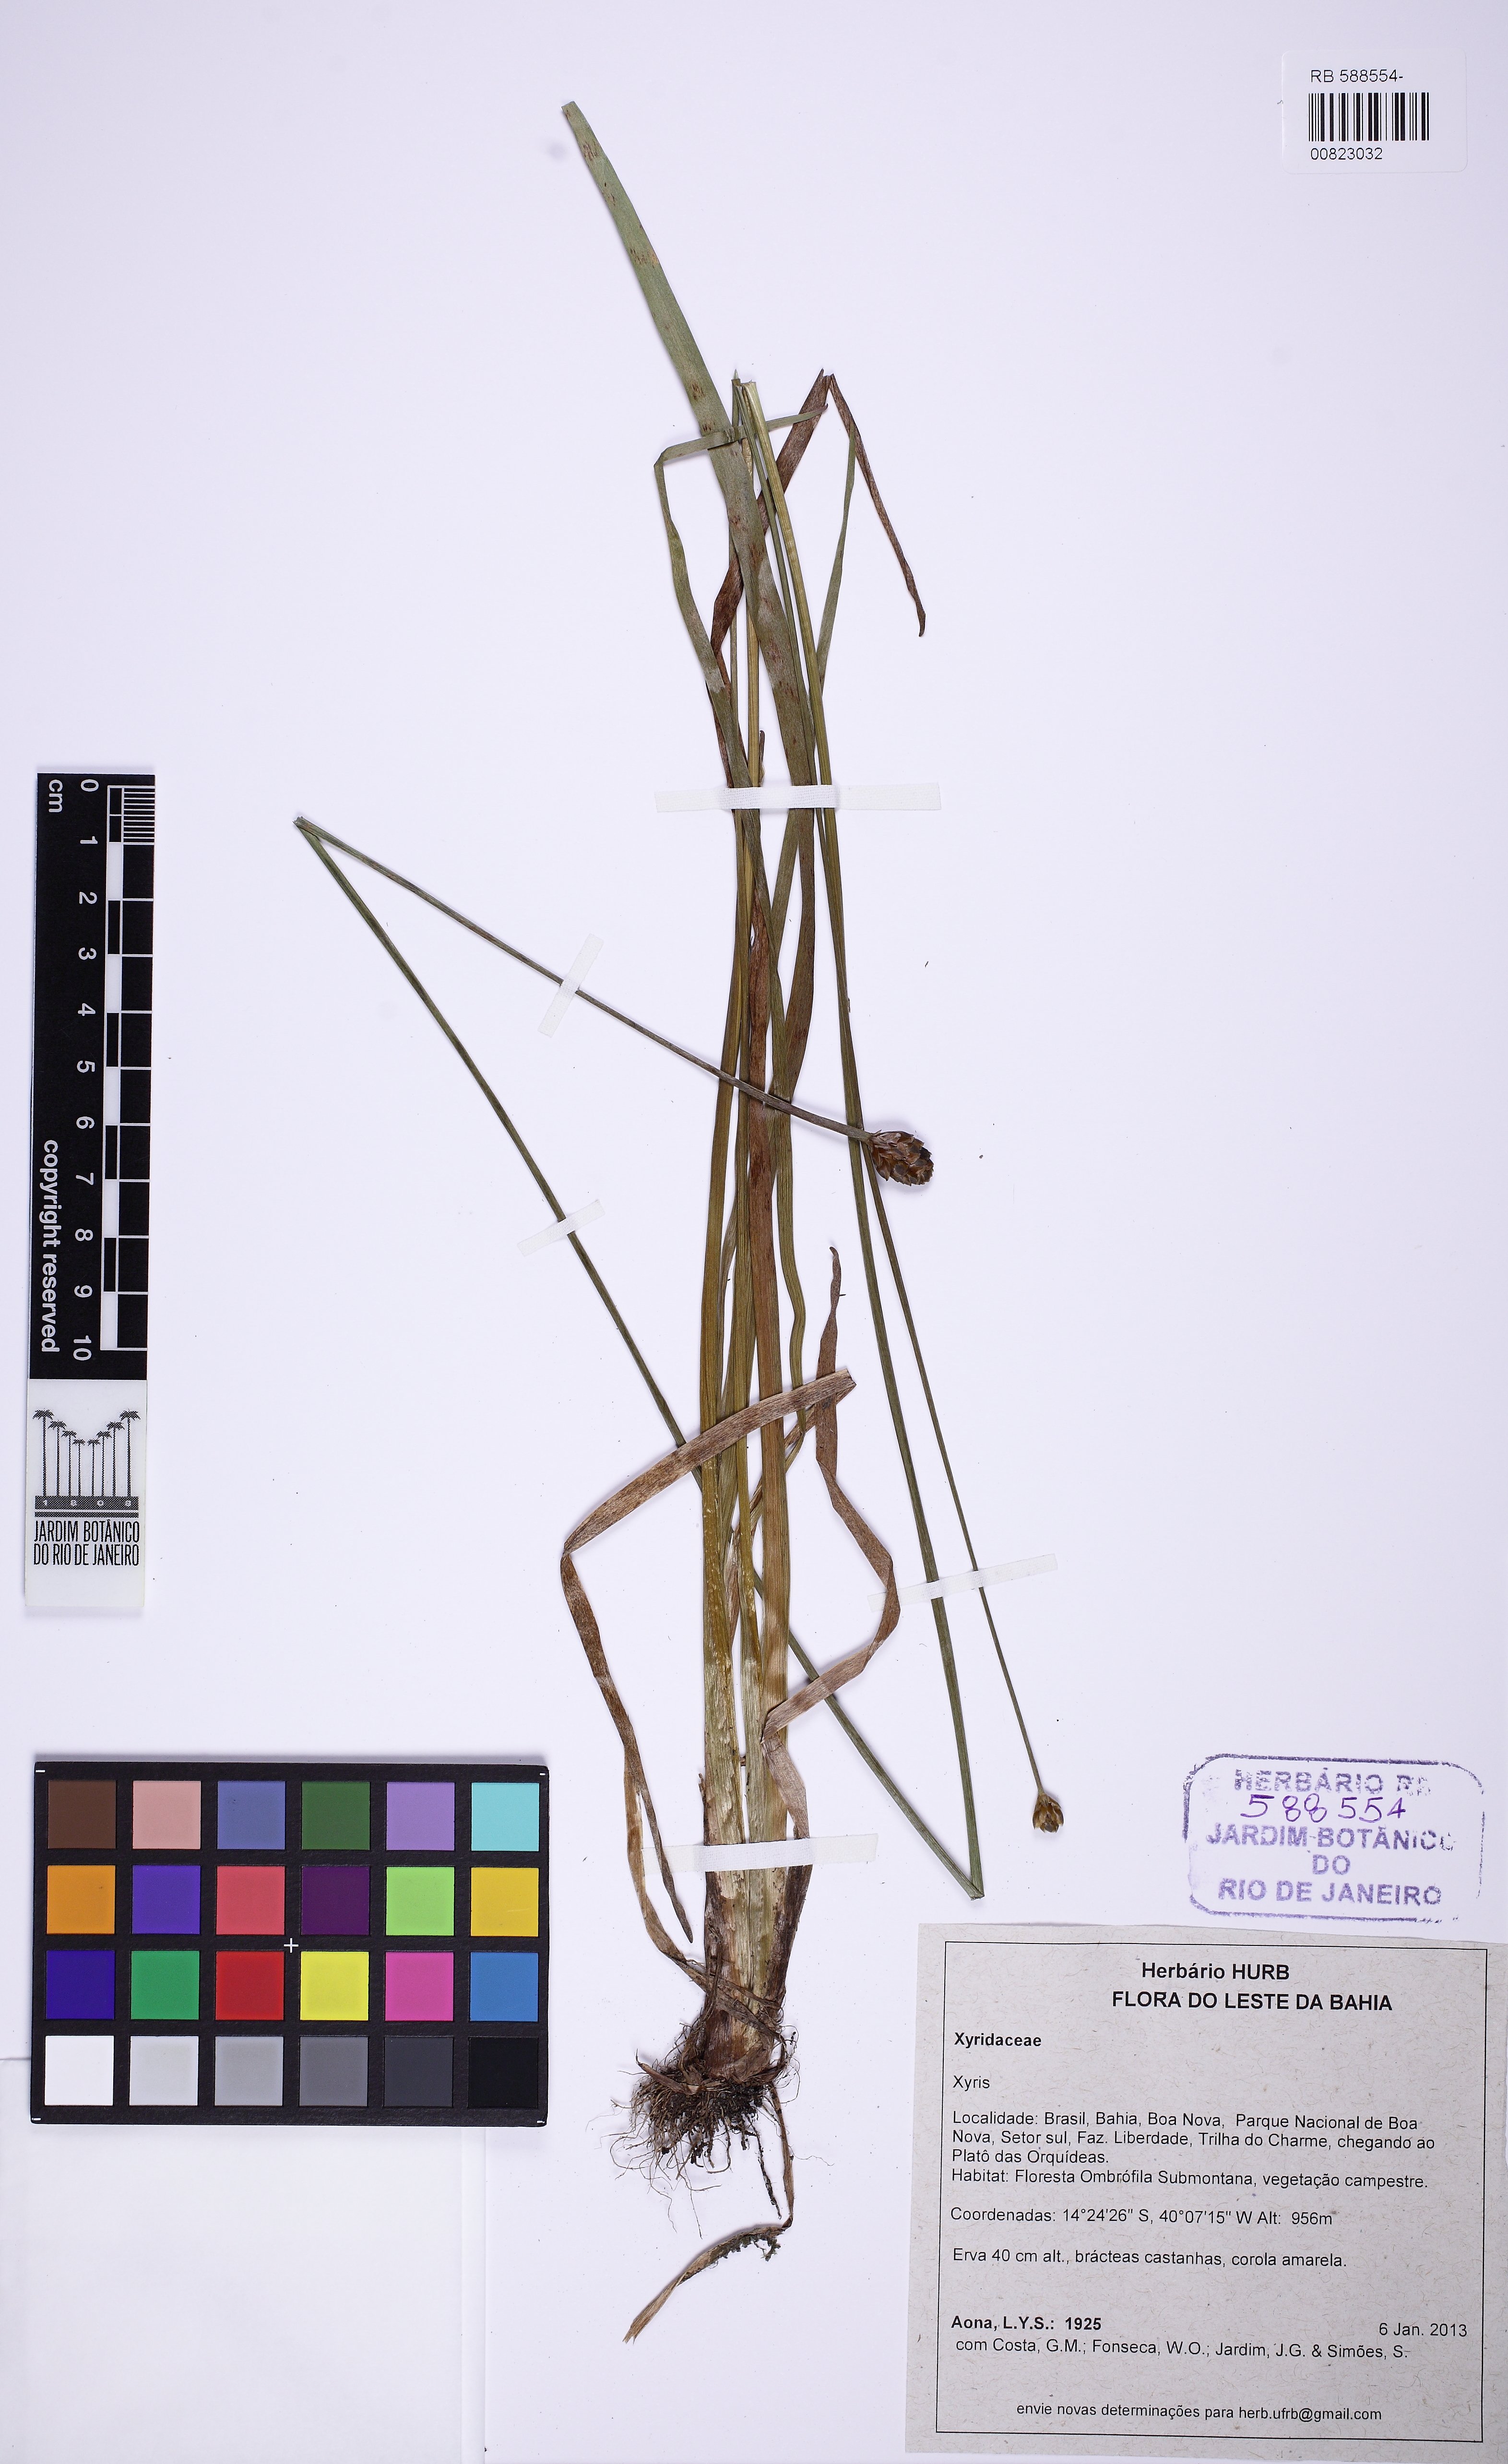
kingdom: Plantae
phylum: Tracheophyta
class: Liliopsida
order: Poales
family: Xyridaceae
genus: Xyris
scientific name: Xyris jupicai
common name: Richard's yelloweyed grass
